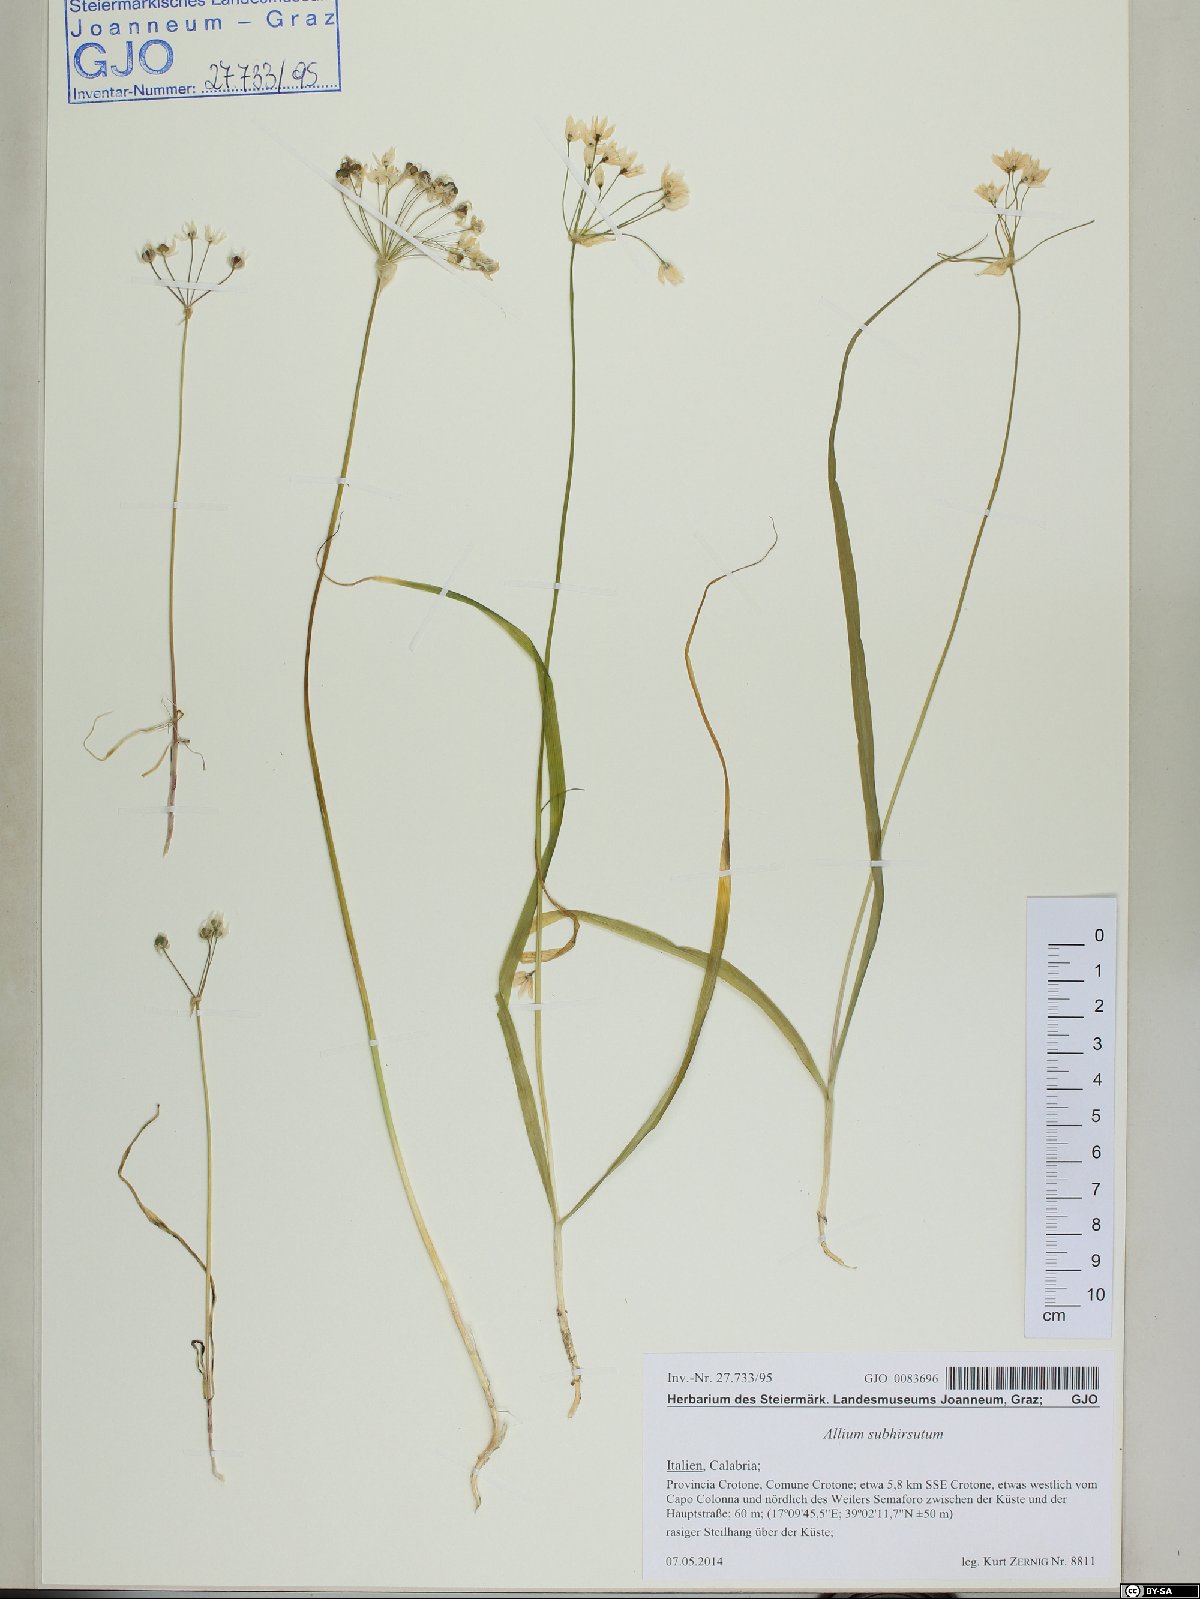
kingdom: Plantae
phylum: Tracheophyta
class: Liliopsida
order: Asparagales
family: Amaryllidaceae
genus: Allium
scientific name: Allium subhirsutum
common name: Hairy garlic
